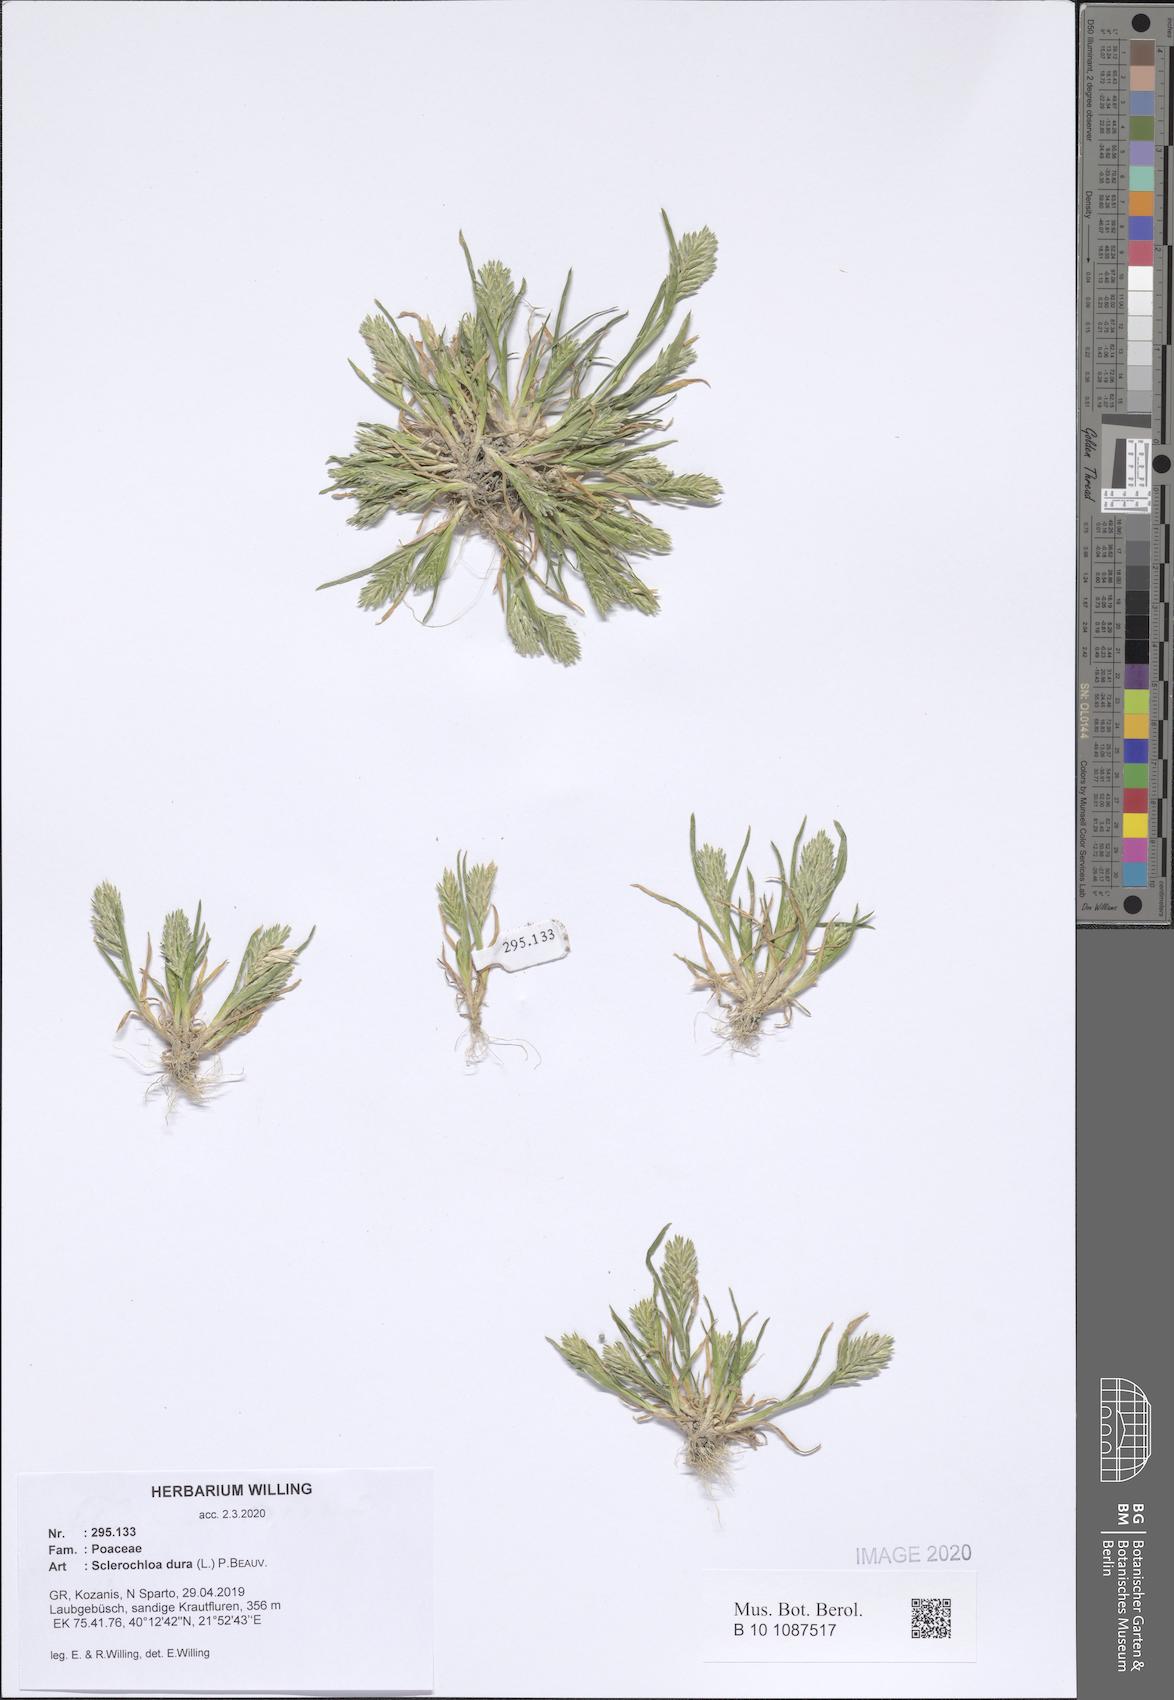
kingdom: Plantae
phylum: Tracheophyta
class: Liliopsida
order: Poales
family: Poaceae
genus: Sclerochloa
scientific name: Sclerochloa dura
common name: Common hardgrass
